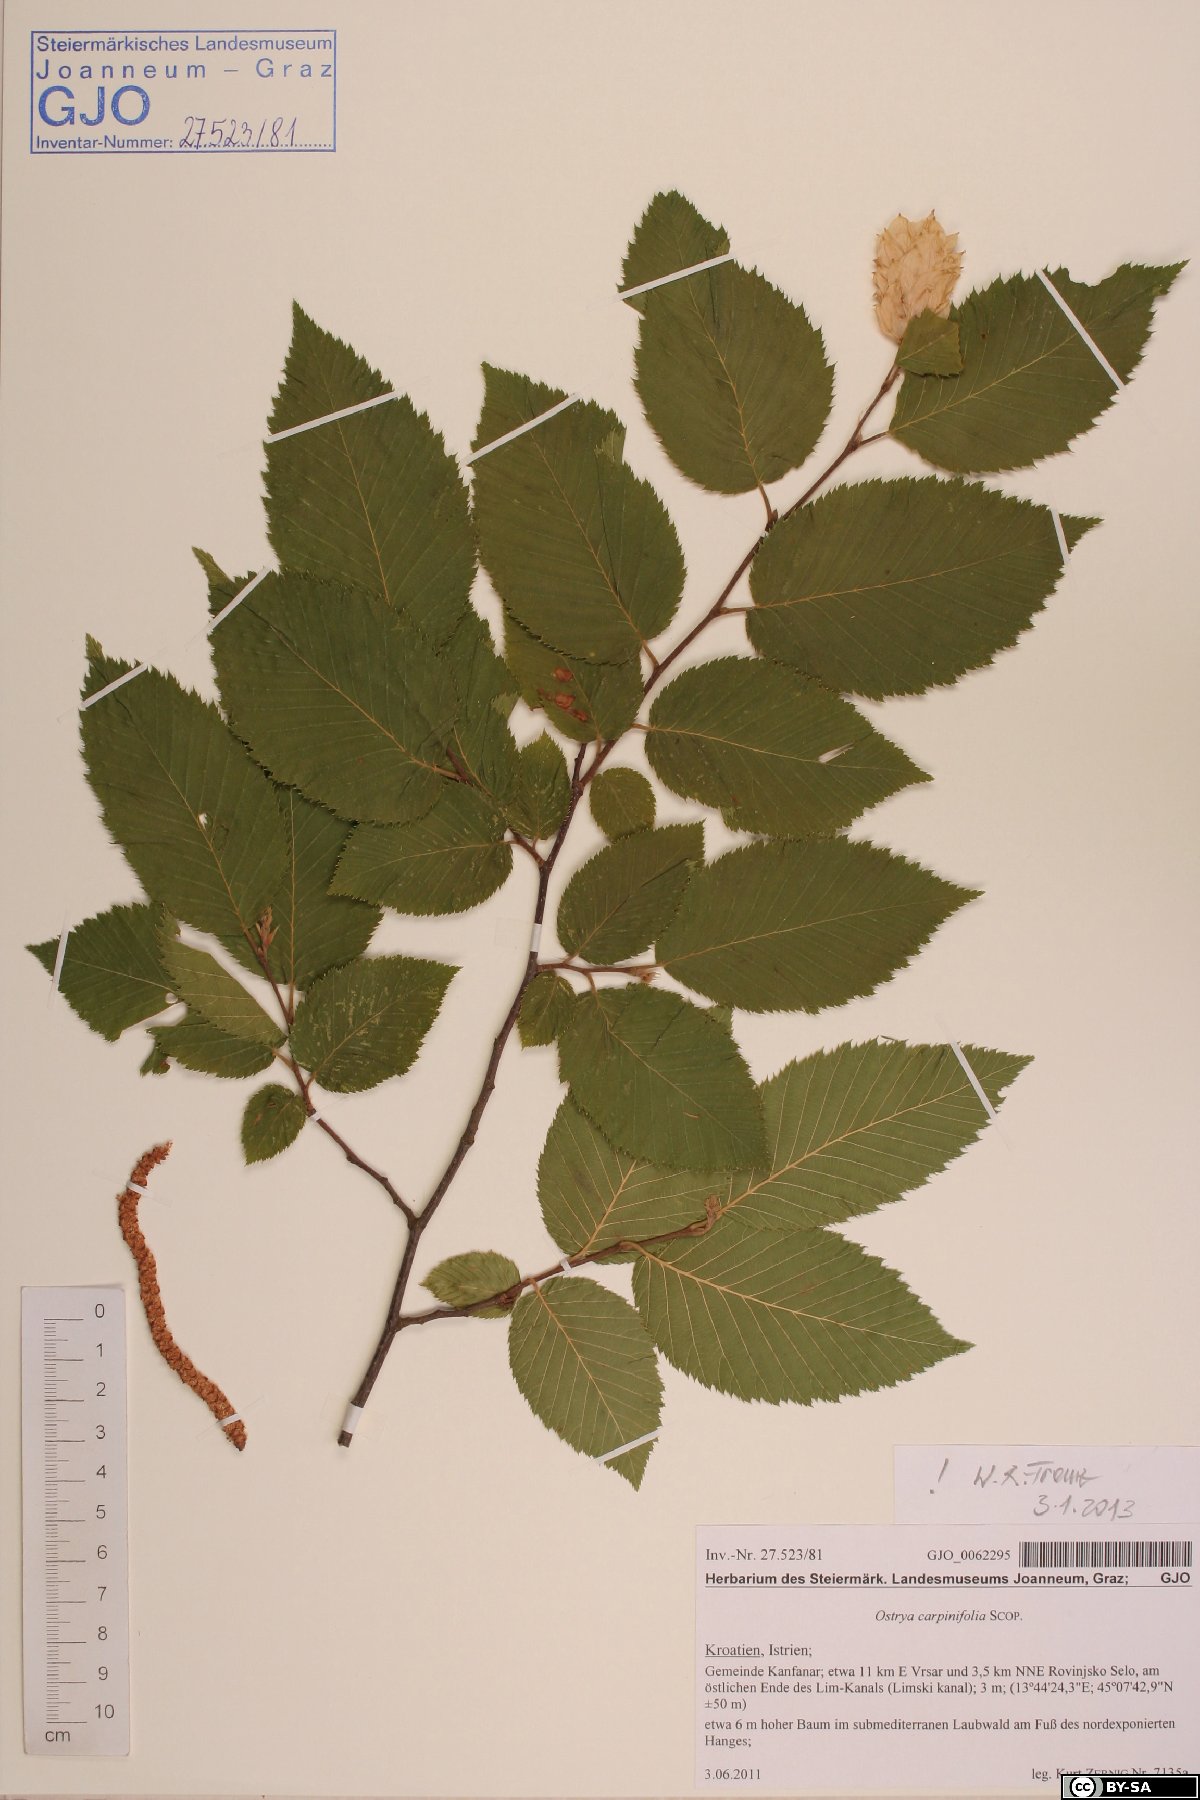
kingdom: Plantae
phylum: Tracheophyta
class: Magnoliopsida
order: Fagales
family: Betulaceae
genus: Ostrya
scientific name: Ostrya carpinifolia
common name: European hop-hornbeam
